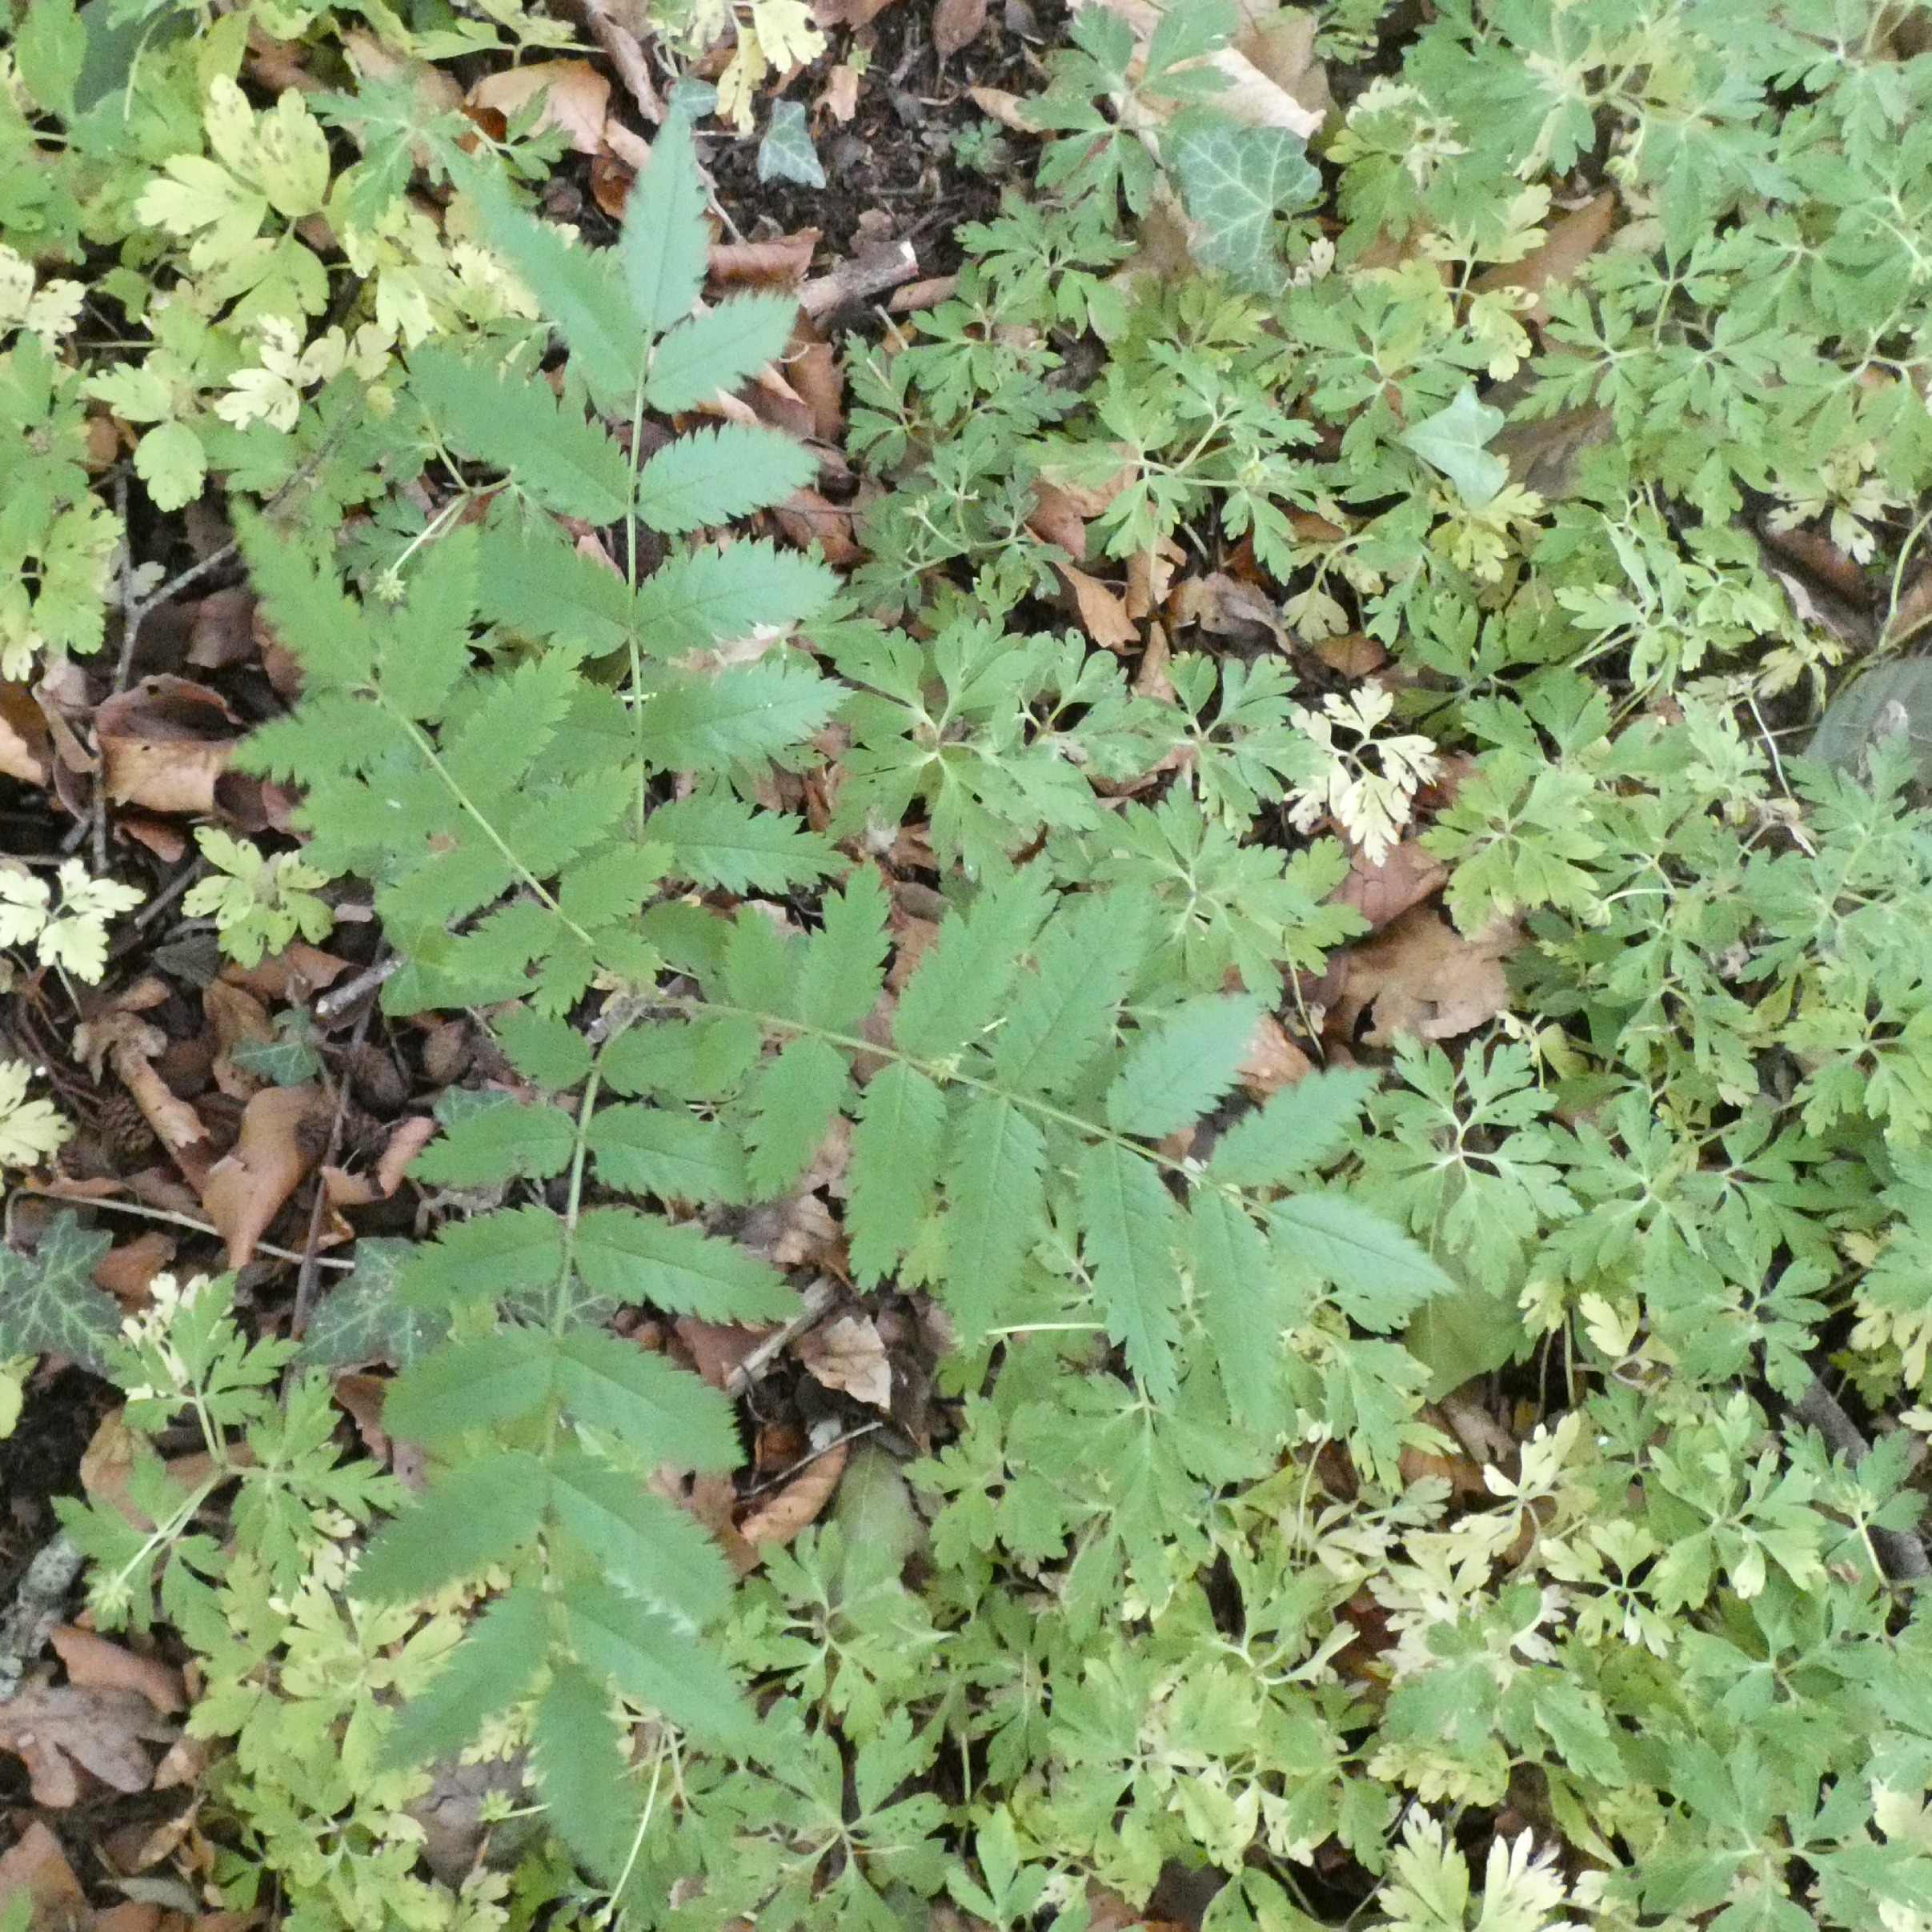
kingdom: Plantae
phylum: Tracheophyta
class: Magnoliopsida
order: Rosales
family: Rosaceae
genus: Sorbus
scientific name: Sorbus aucuparia
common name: Almindelig røn
